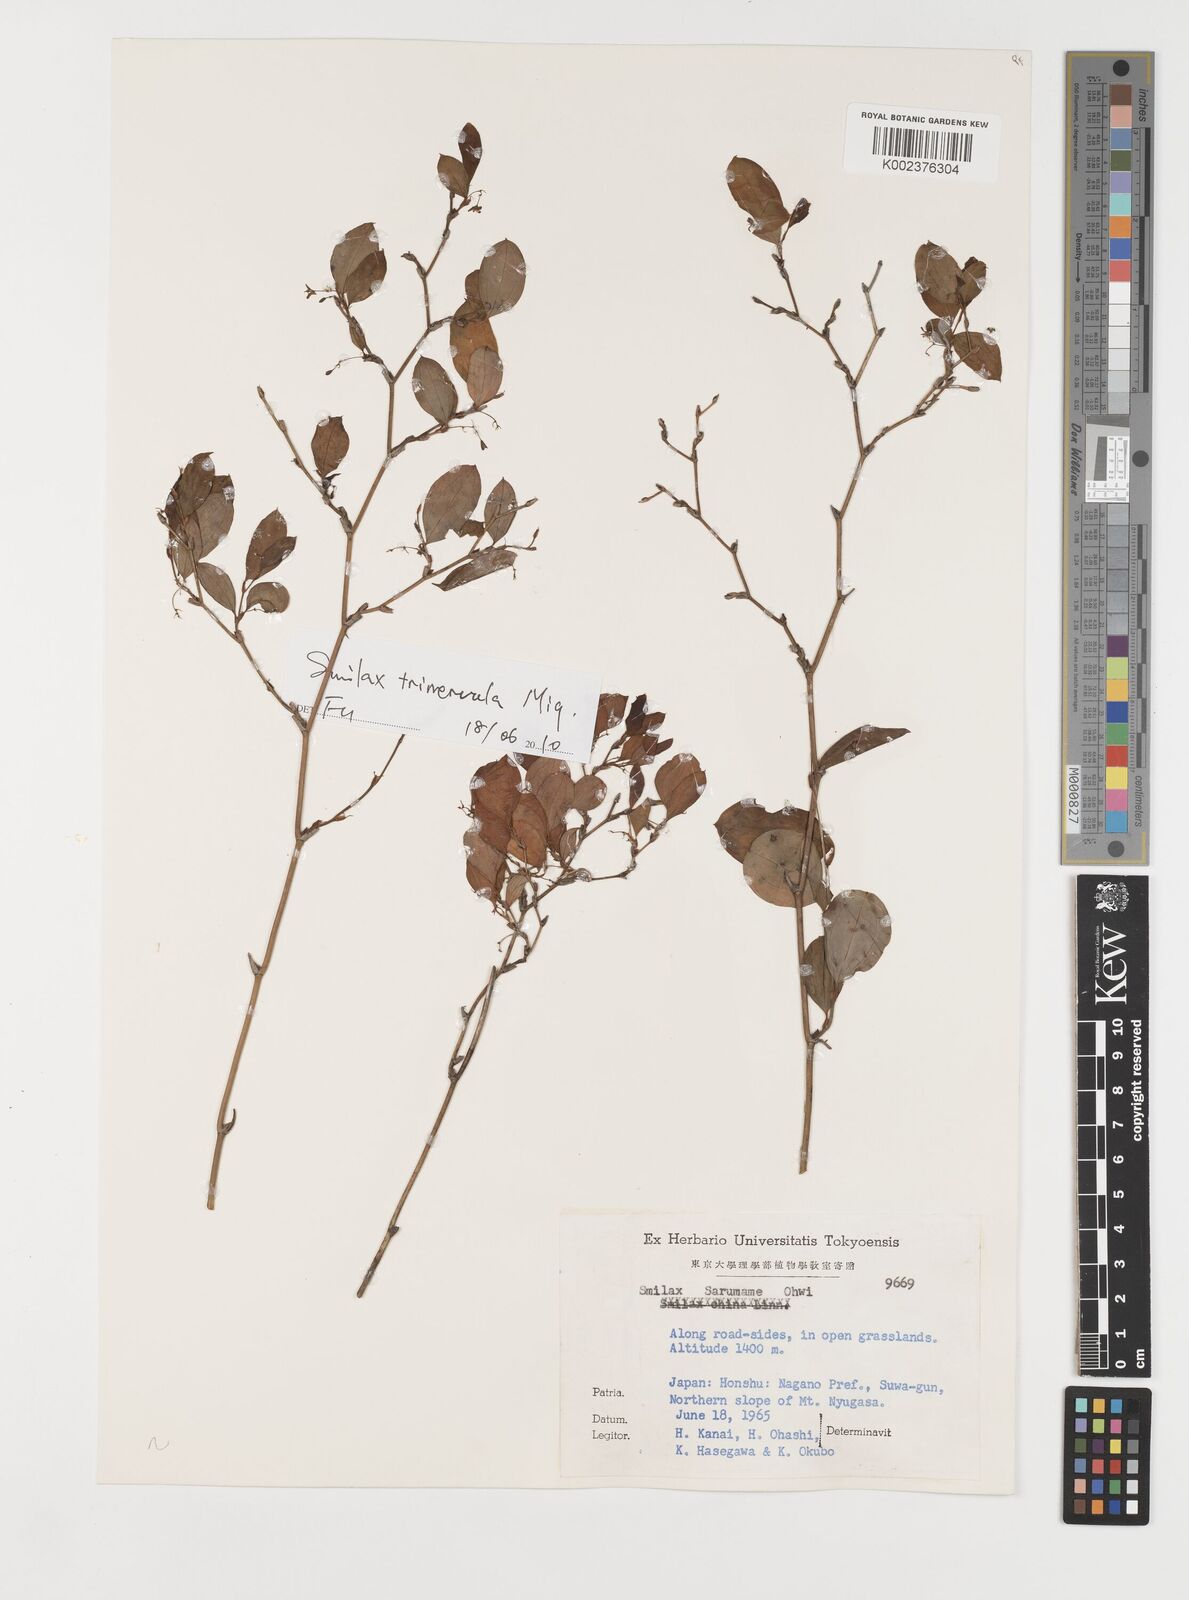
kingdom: Plantae
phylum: Tracheophyta
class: Liliopsida
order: Liliales
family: Smilacaceae
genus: Smilax
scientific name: Smilax trinervula
